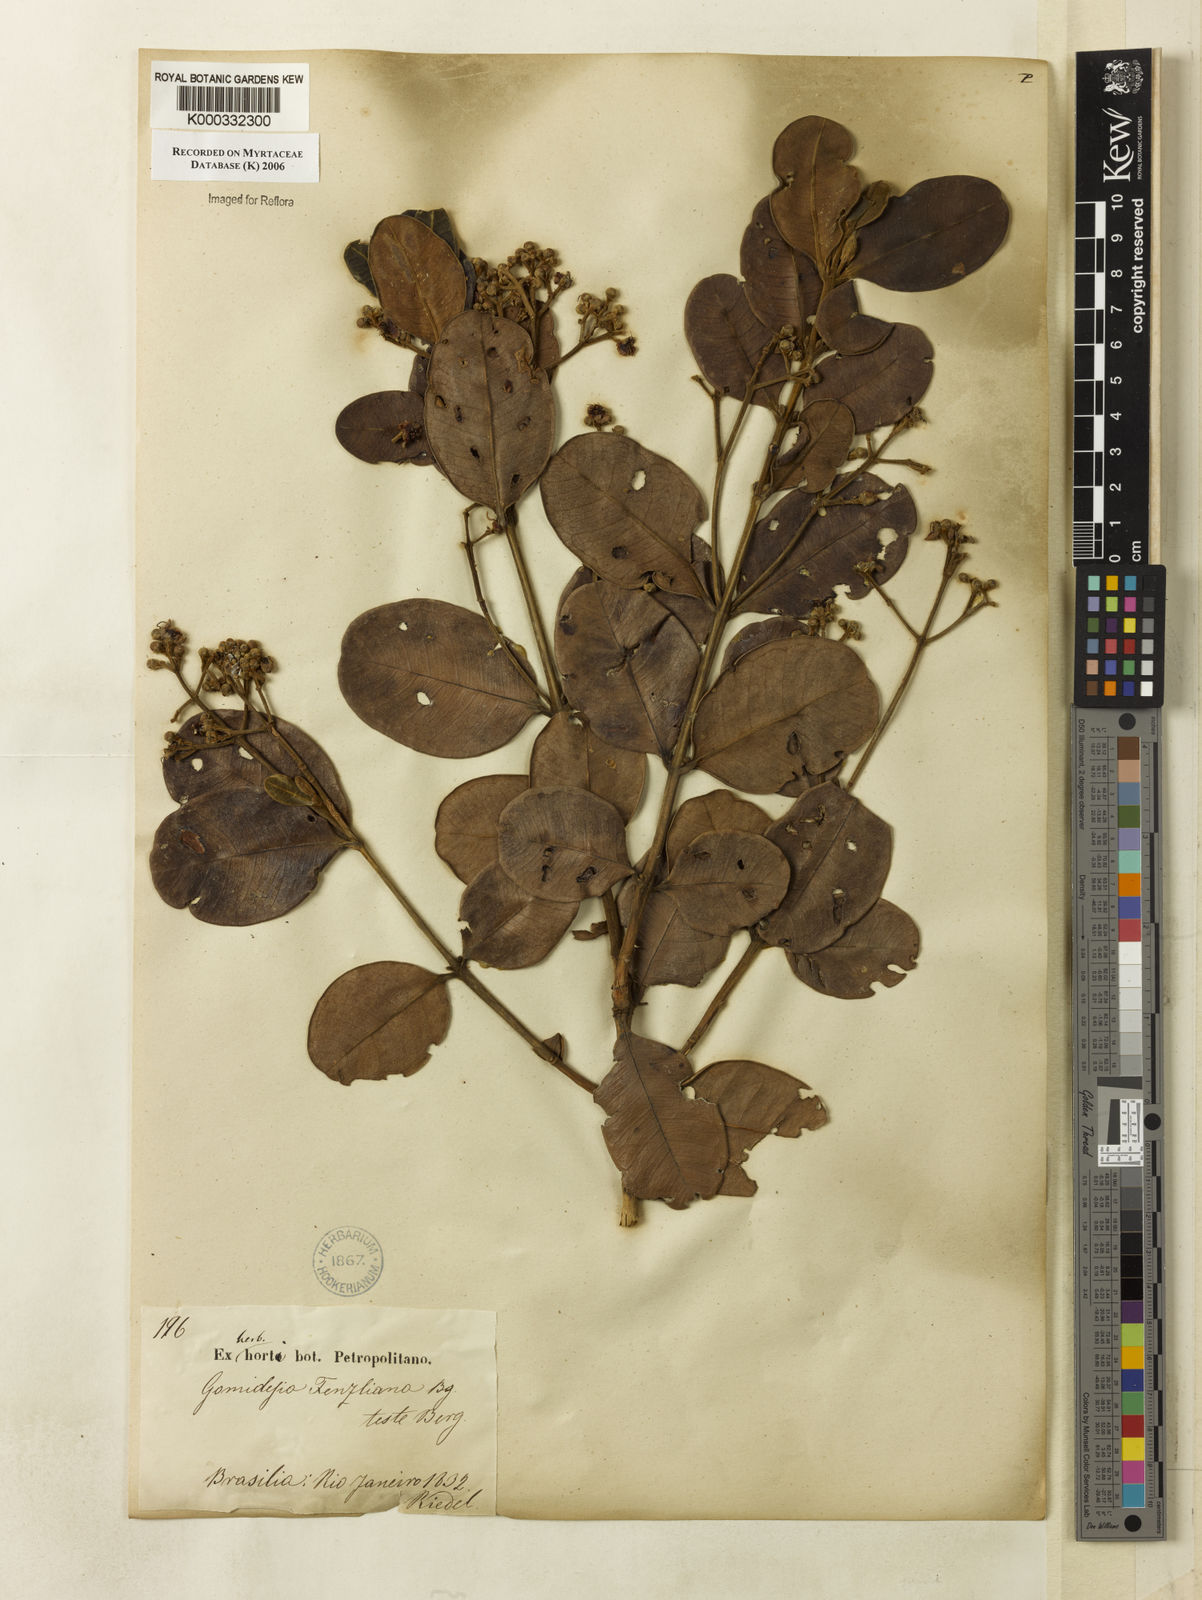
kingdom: Plantae
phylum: Tracheophyta
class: Magnoliopsida
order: Myrtales
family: Myrtaceae
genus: Myrcia
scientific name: Myrcia ilheosensis
